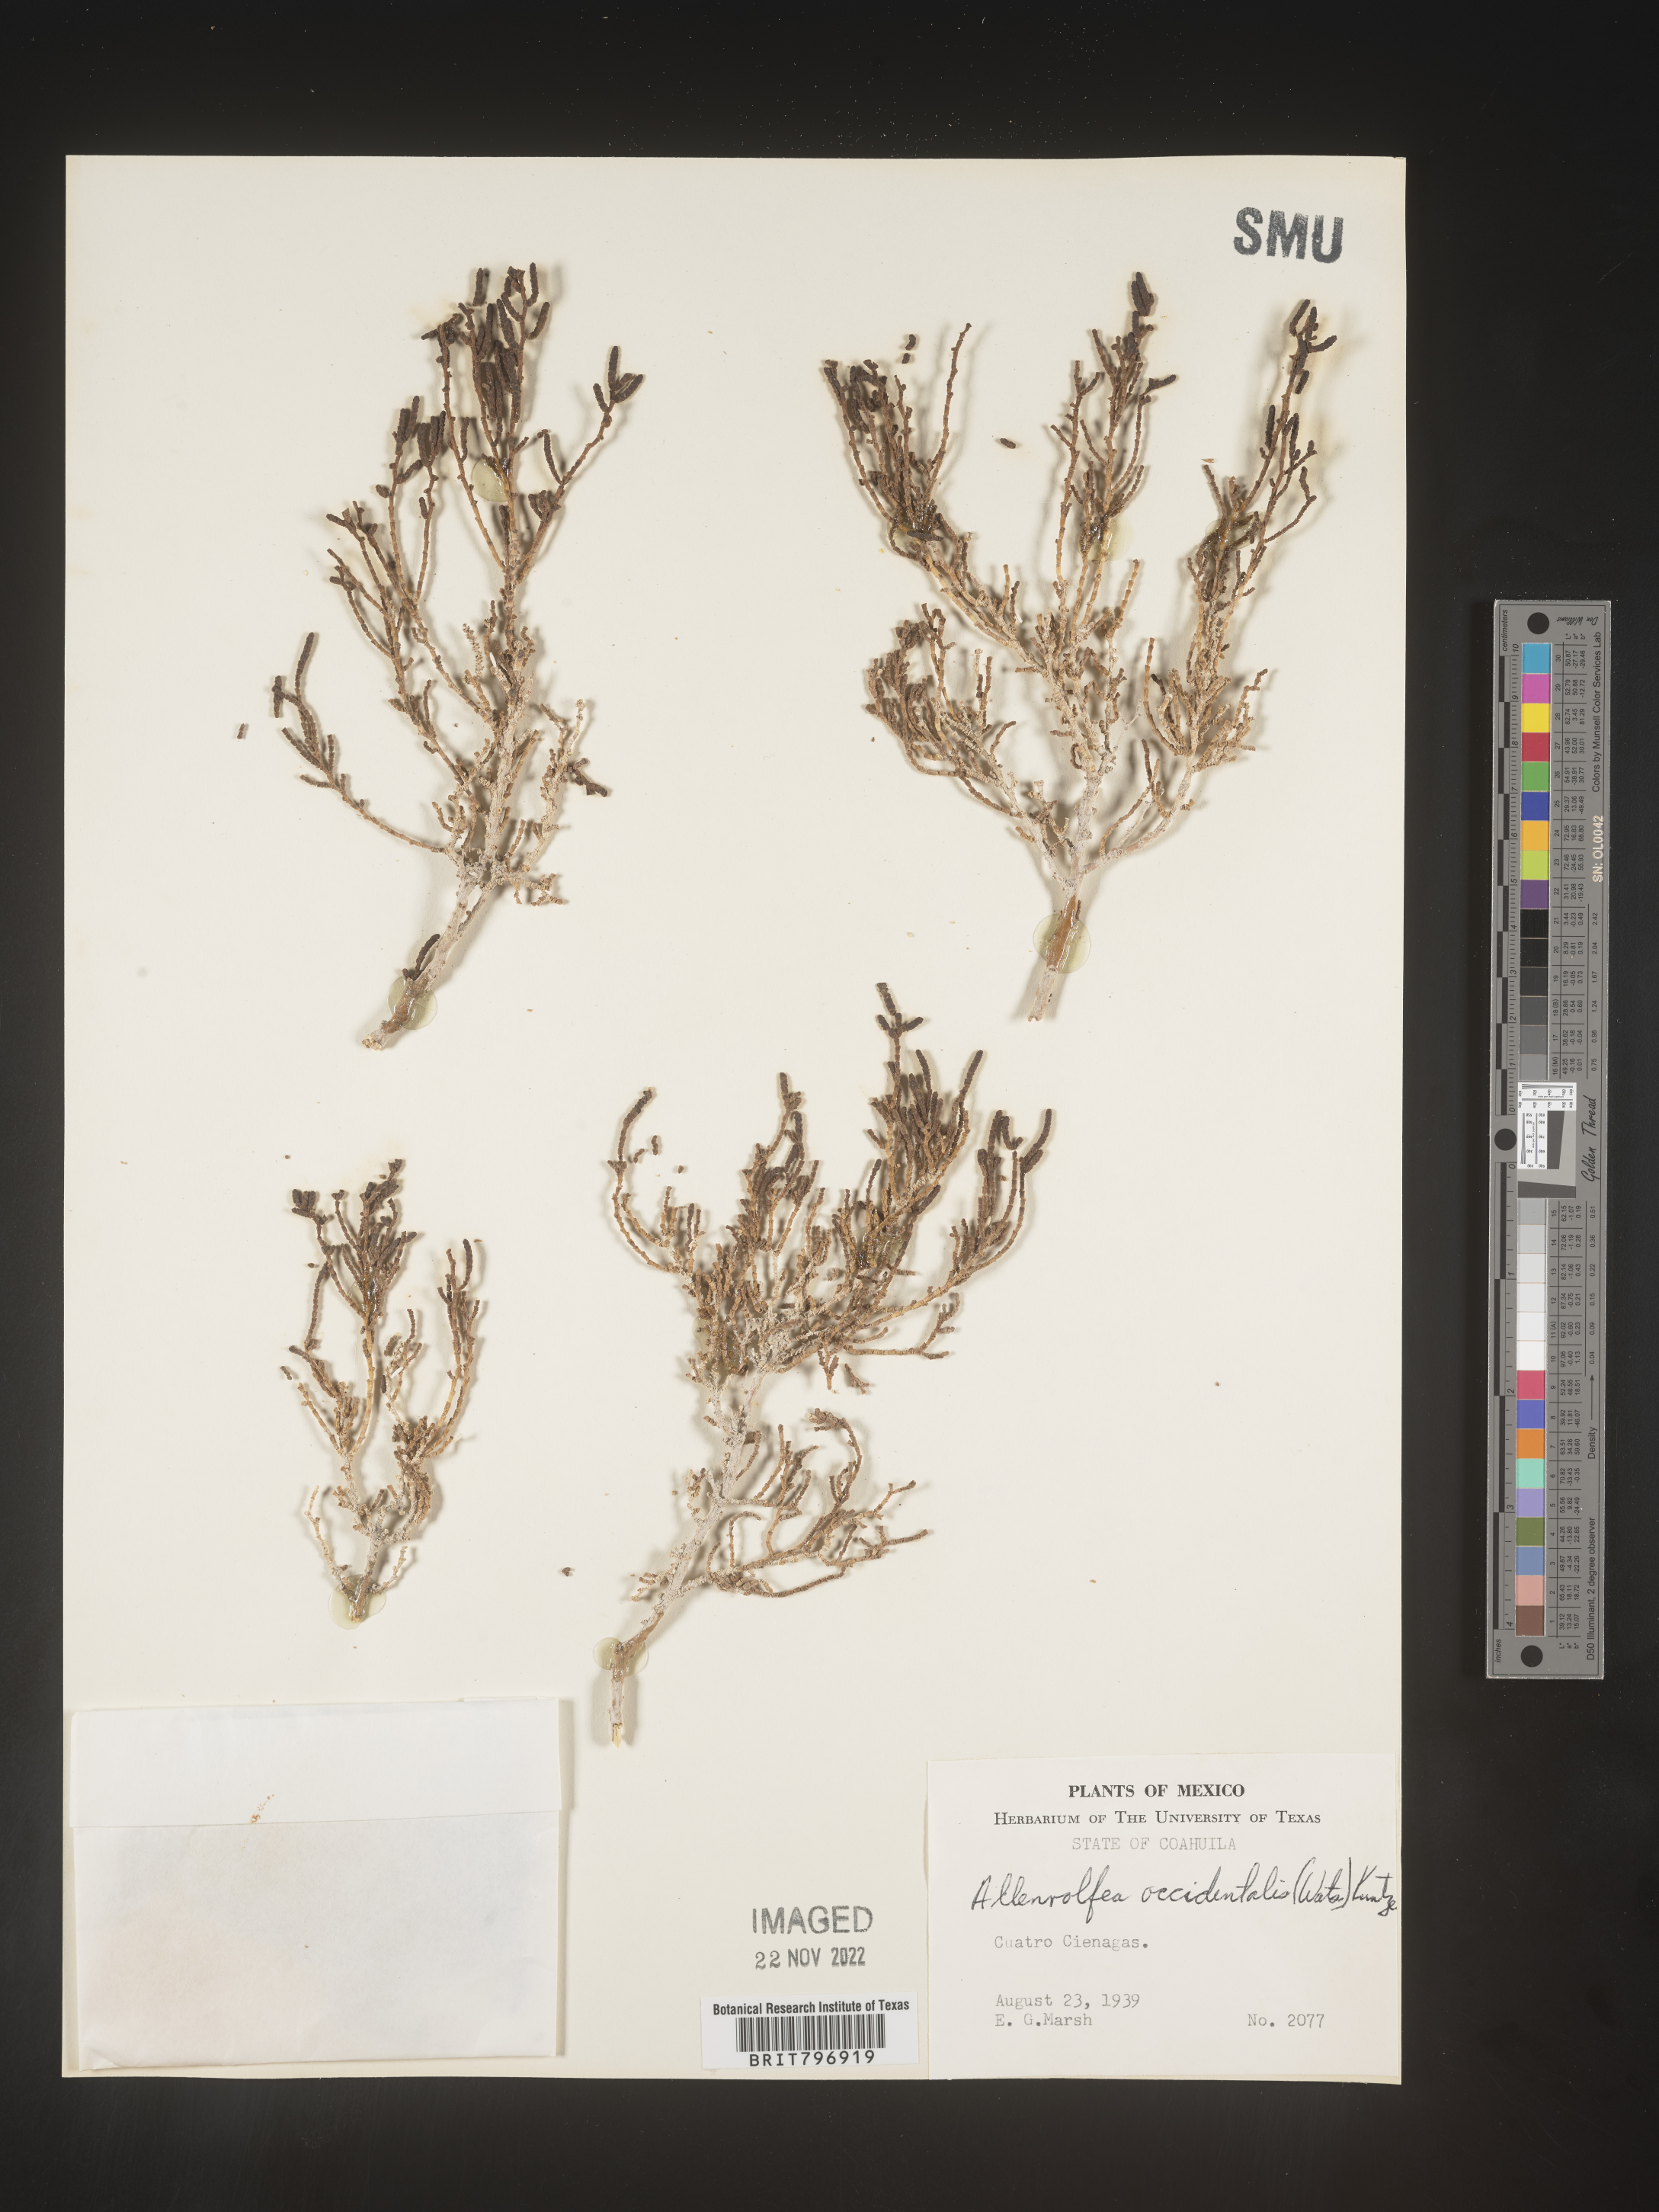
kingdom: Plantae
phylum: Tracheophyta
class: Magnoliopsida
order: Caryophyllales
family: Amaranthaceae
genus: Allenrolfea
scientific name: Allenrolfea
